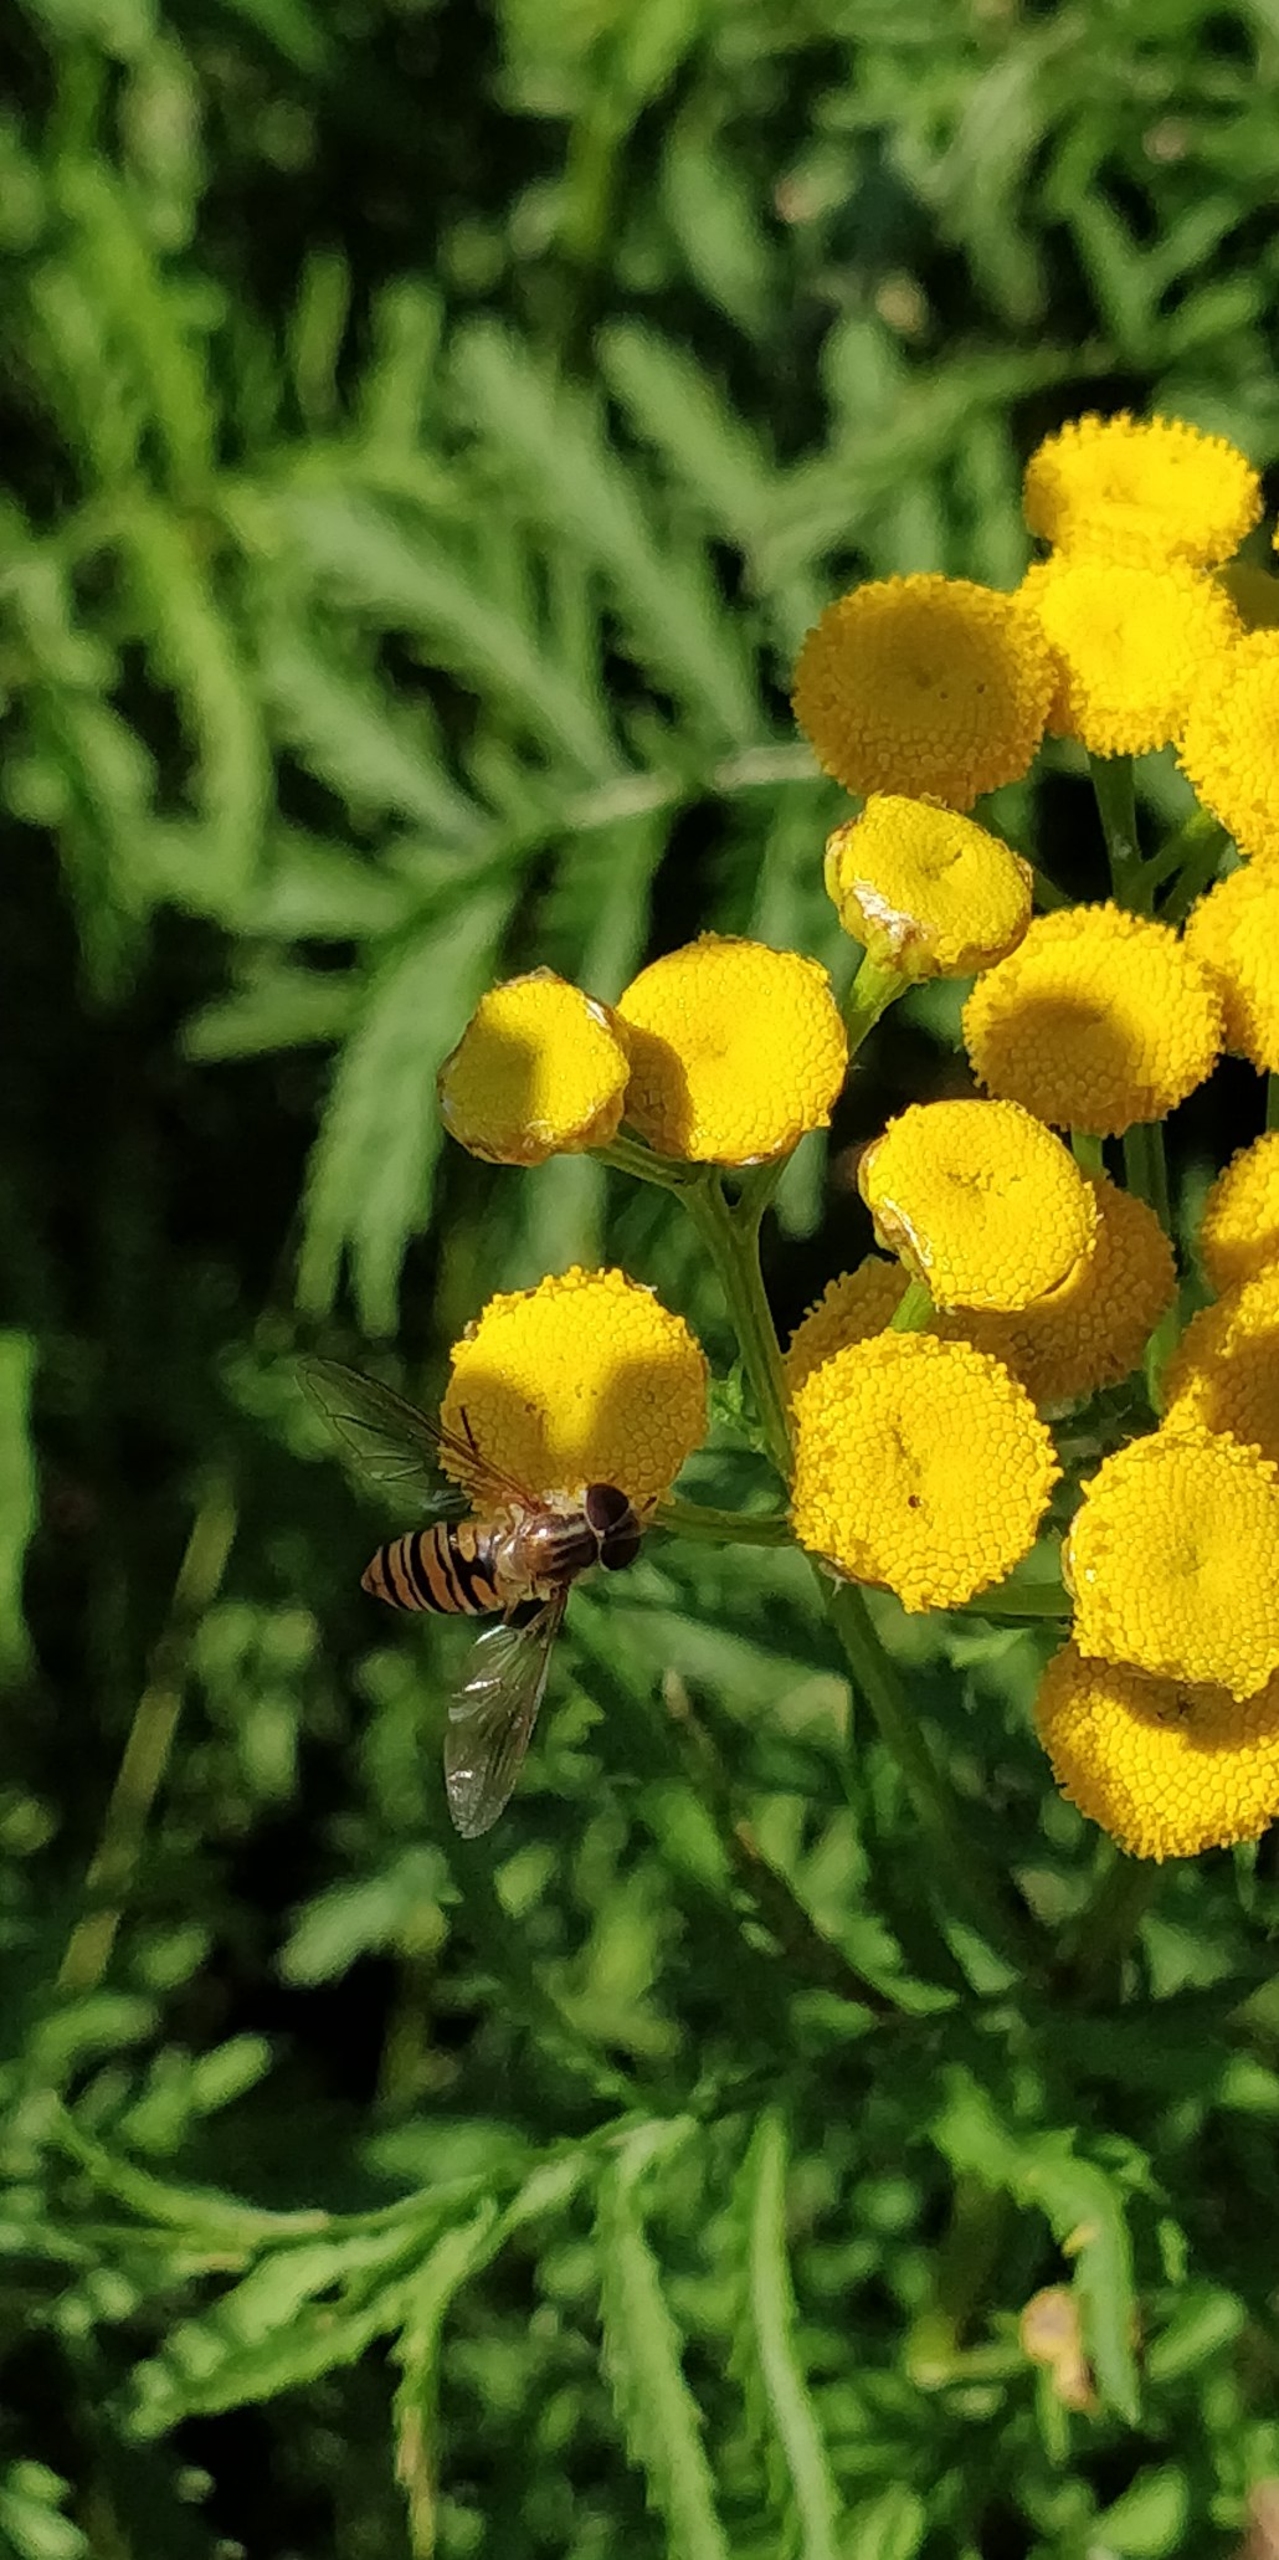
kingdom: Animalia
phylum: Arthropoda
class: Insecta
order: Diptera
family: Syrphidae
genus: Episyrphus
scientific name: Episyrphus balteatus
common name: Dobbeltbåndet svirreflue
